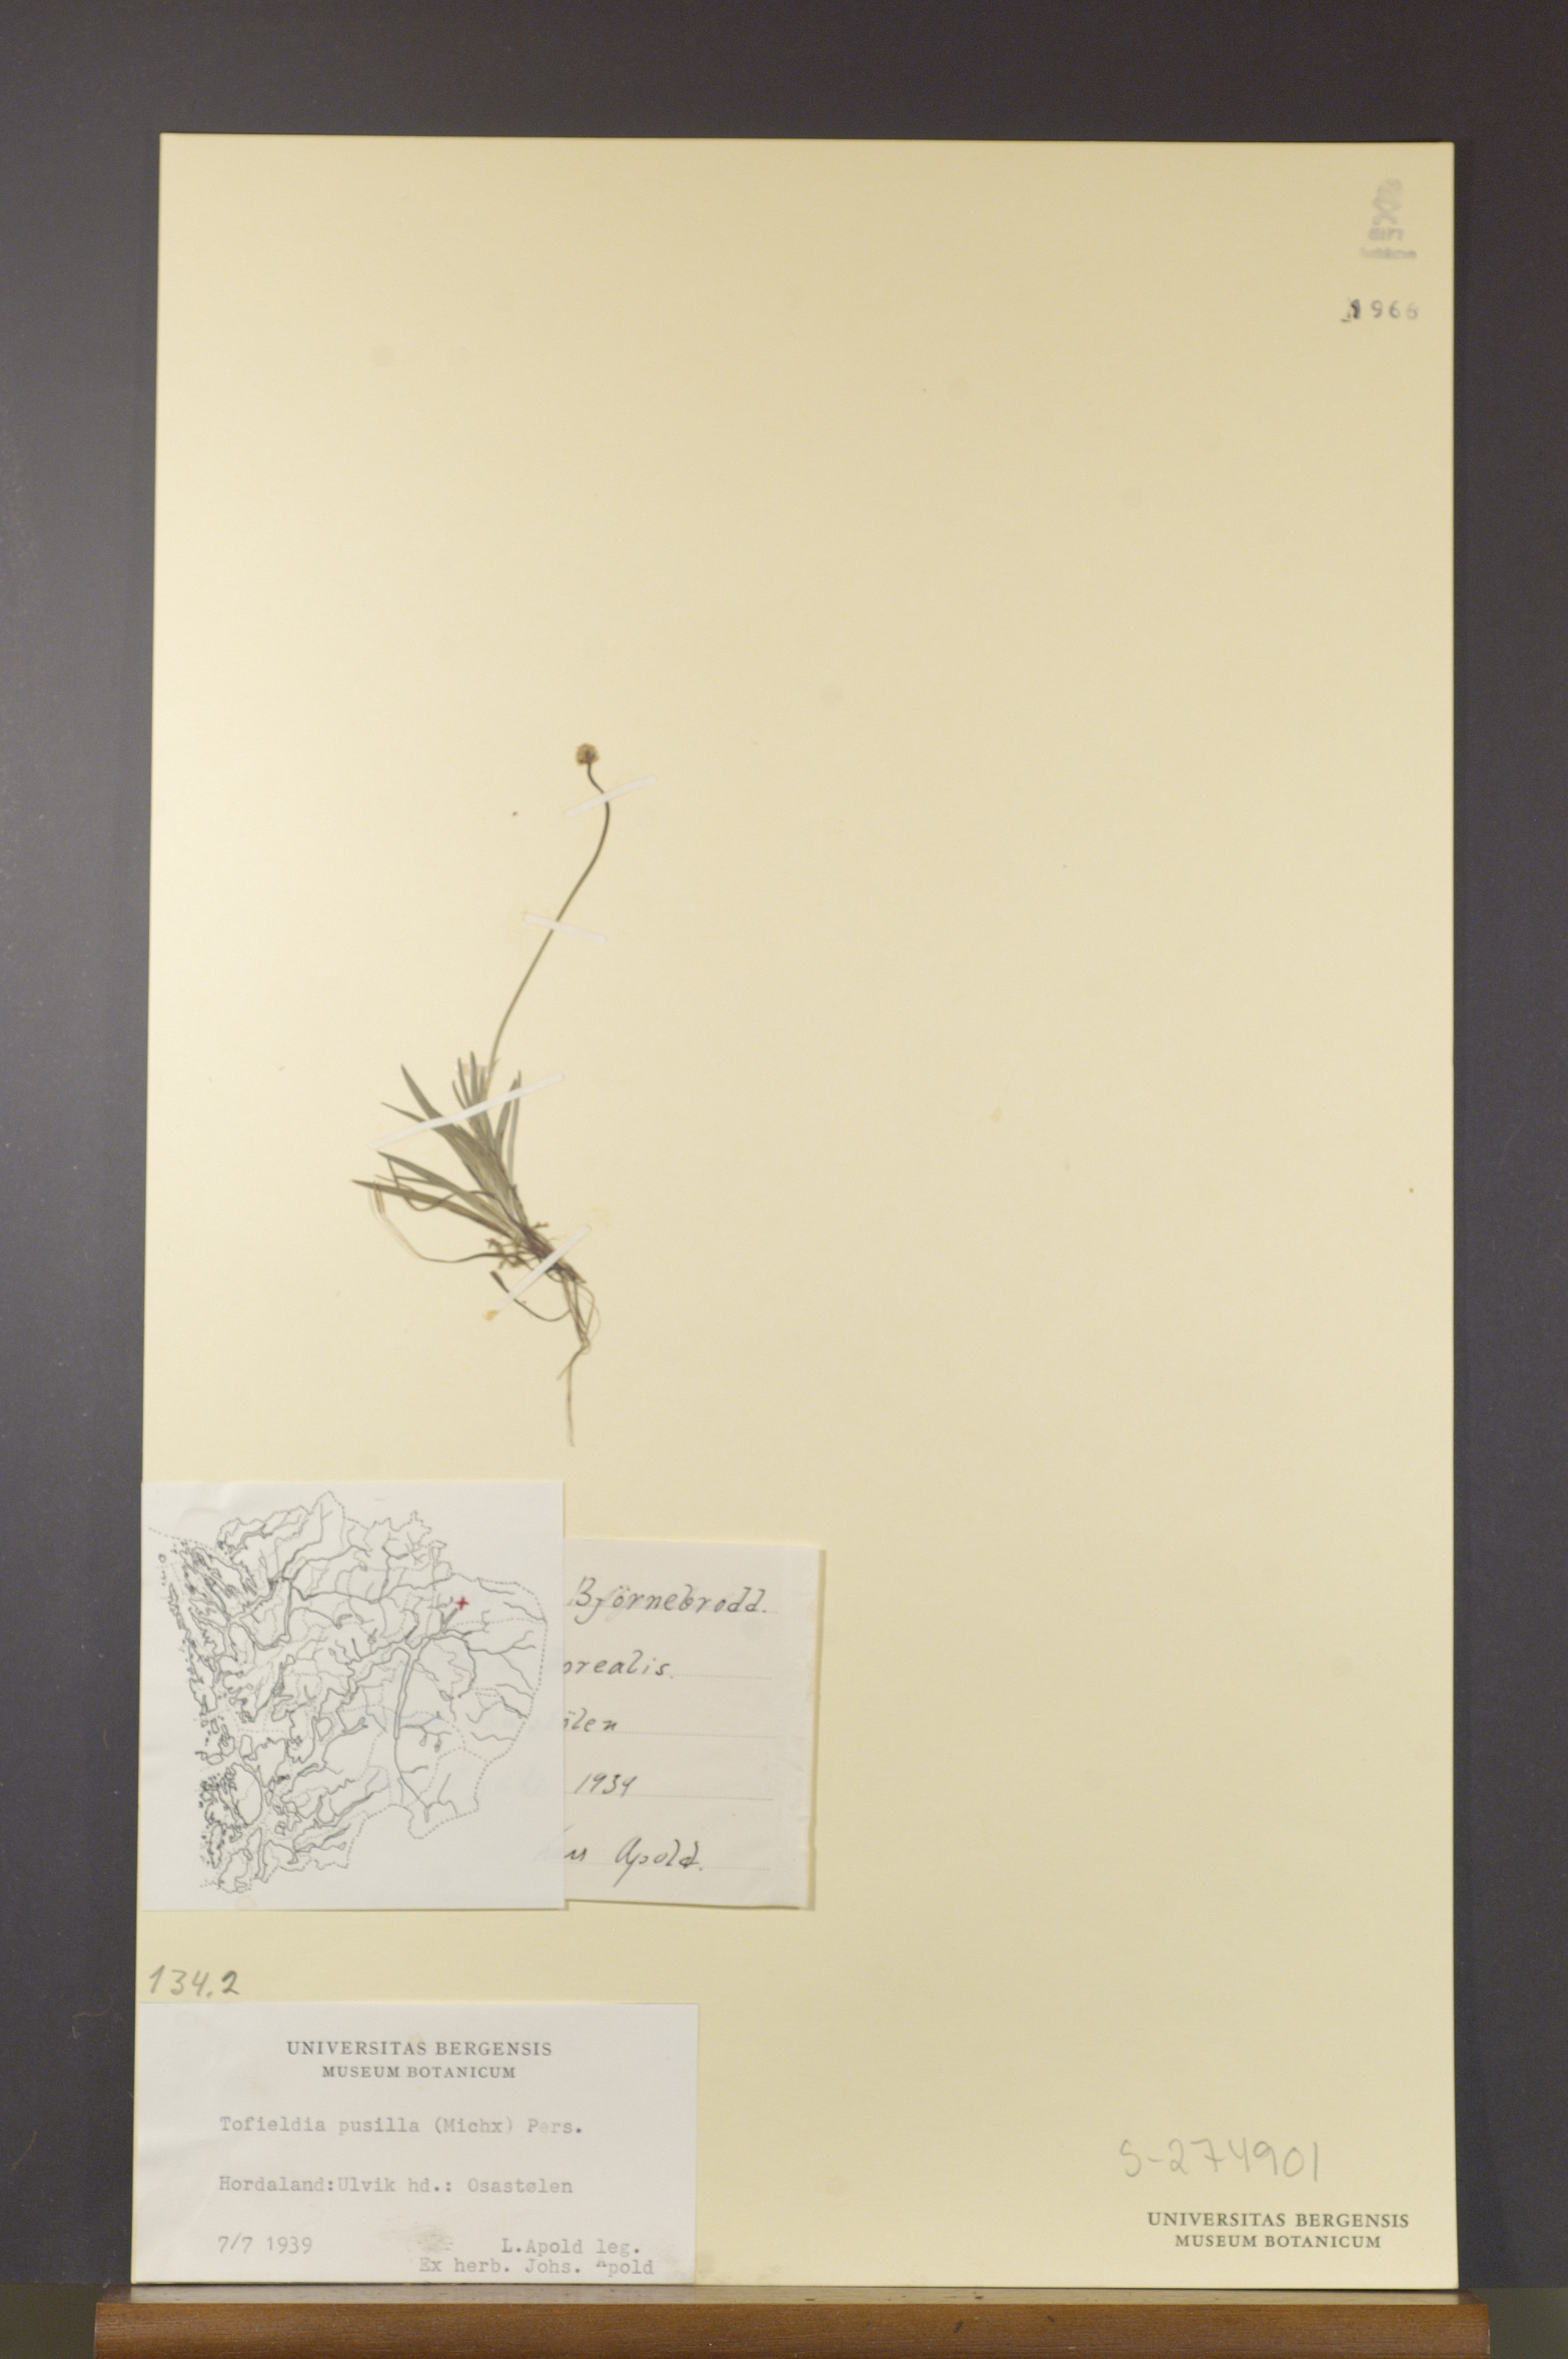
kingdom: Plantae
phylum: Tracheophyta
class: Liliopsida
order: Alismatales
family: Tofieldiaceae
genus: Tofieldia
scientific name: Tofieldia pusilla
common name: Scottish false asphodel
